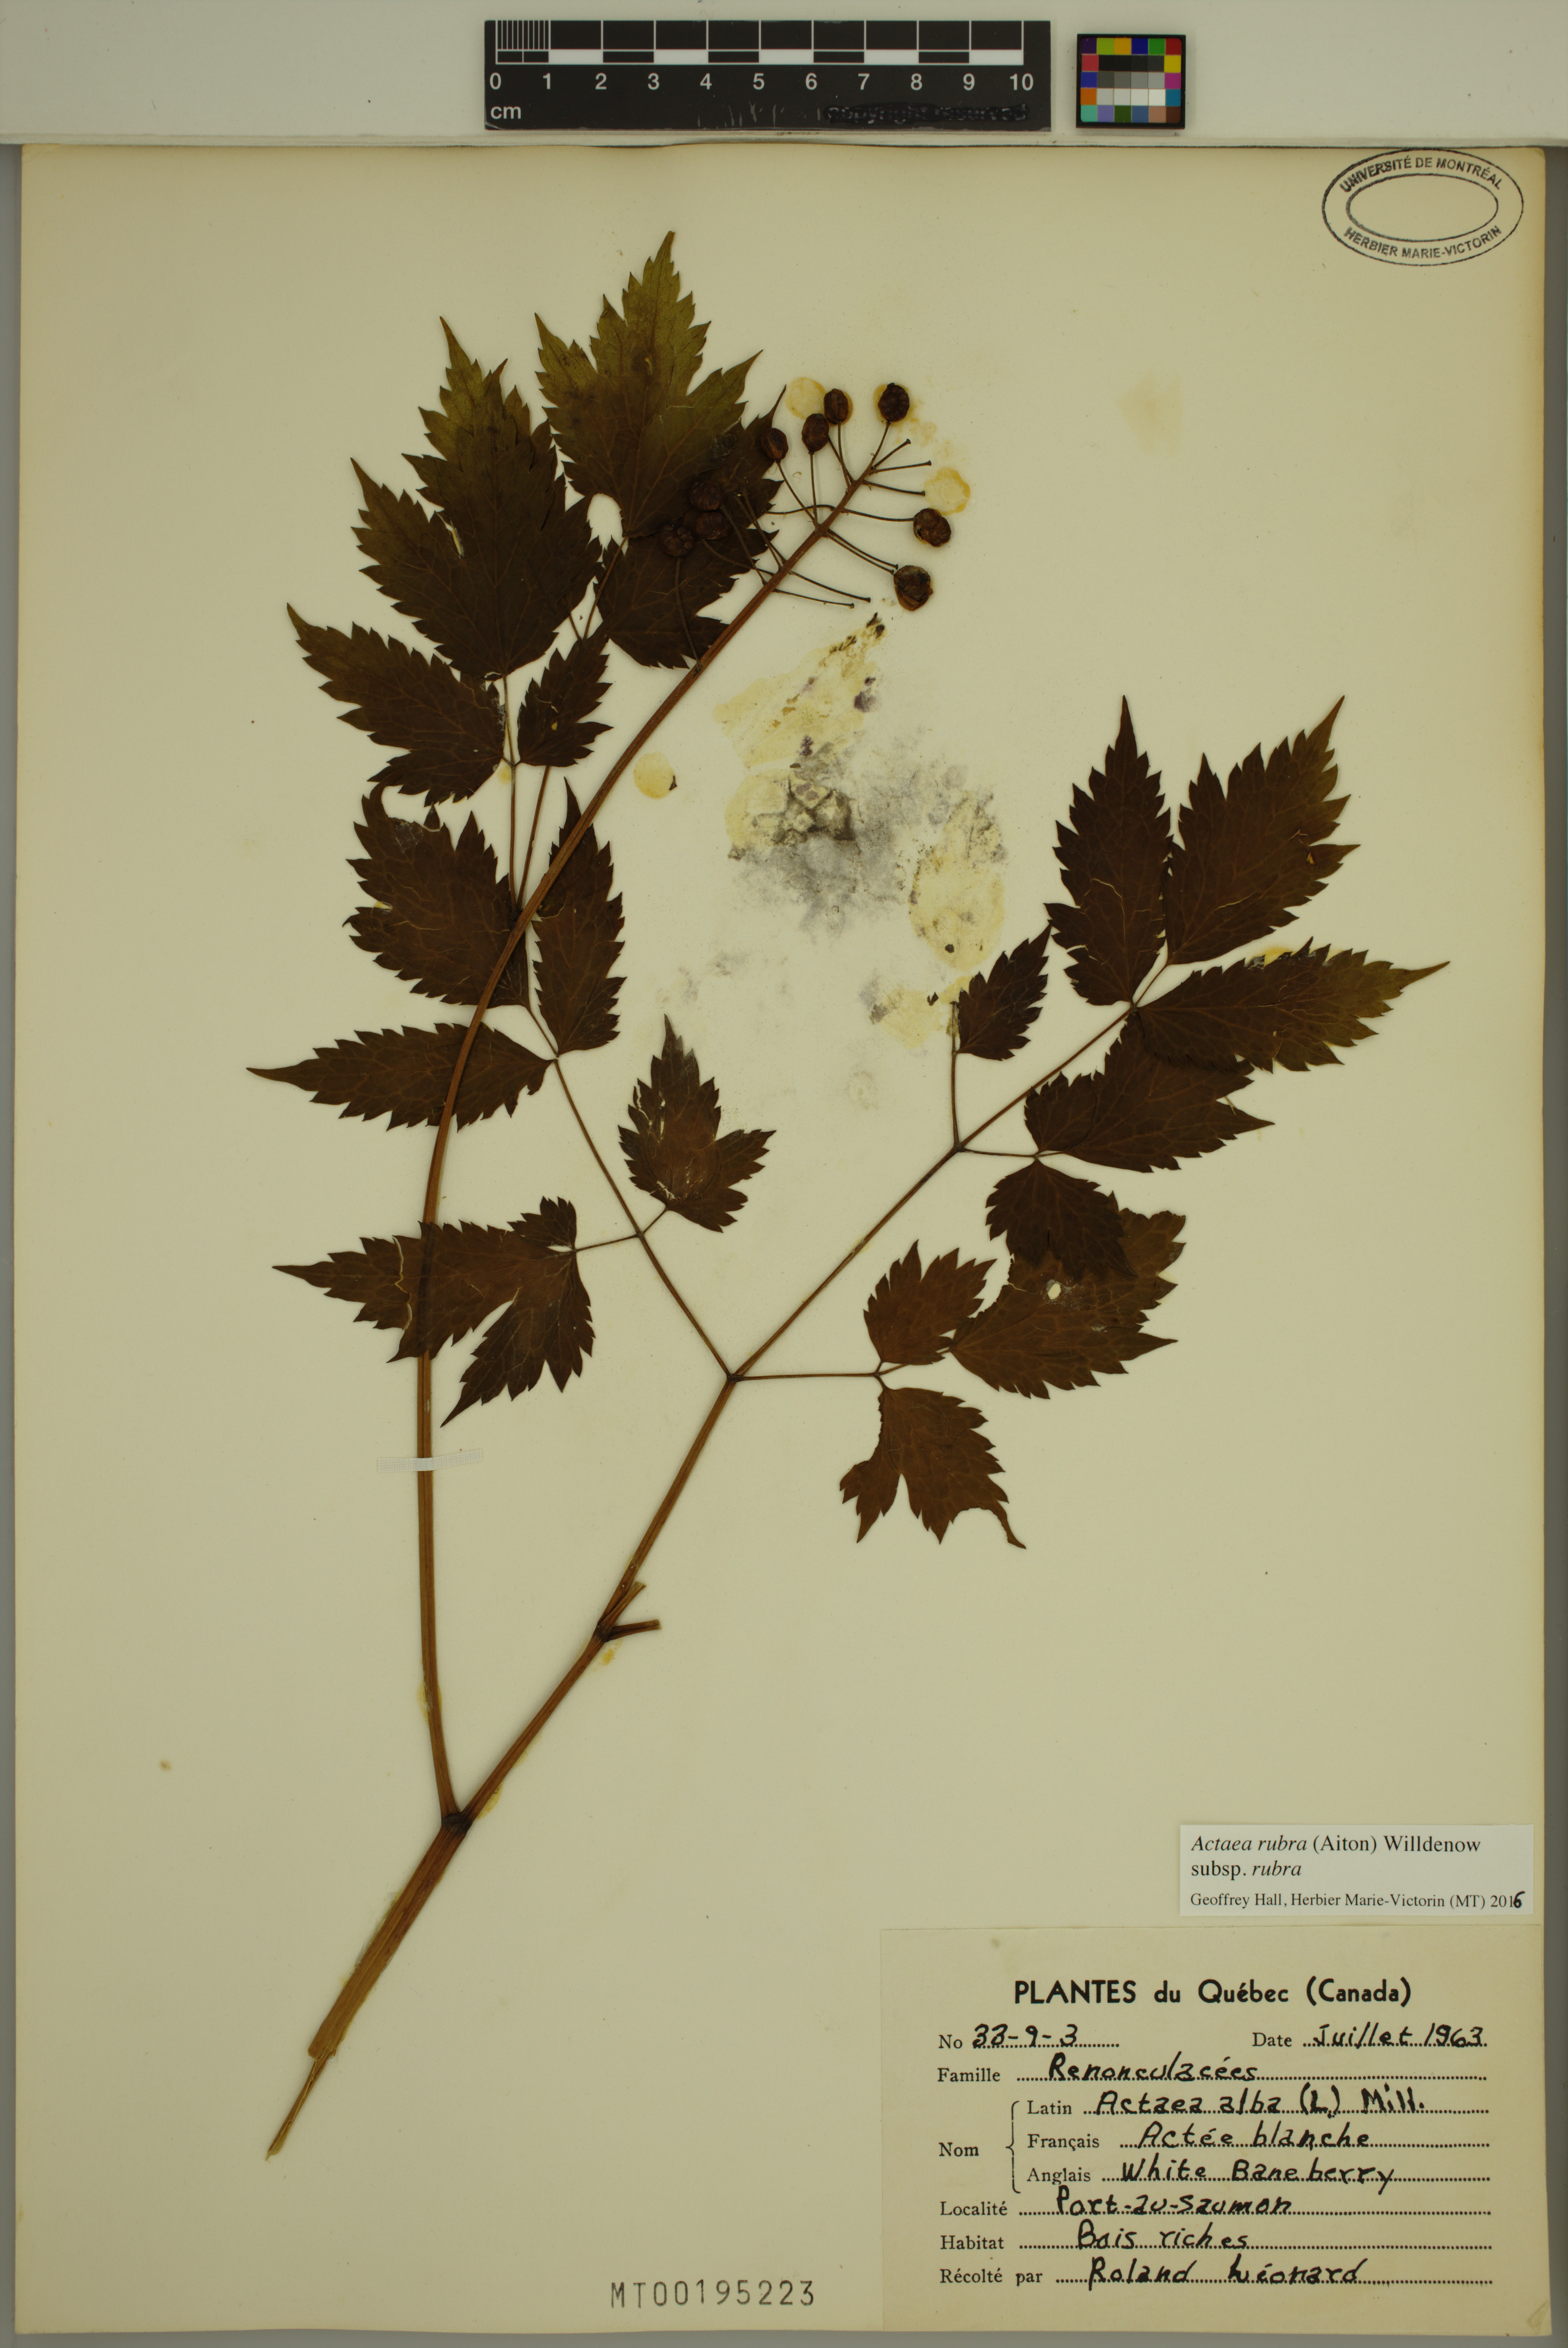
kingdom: Plantae
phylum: Tracheophyta
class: Magnoliopsida
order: Ranunculales
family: Ranunculaceae
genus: Actaea
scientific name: Actaea rubra
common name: Red baneberry
